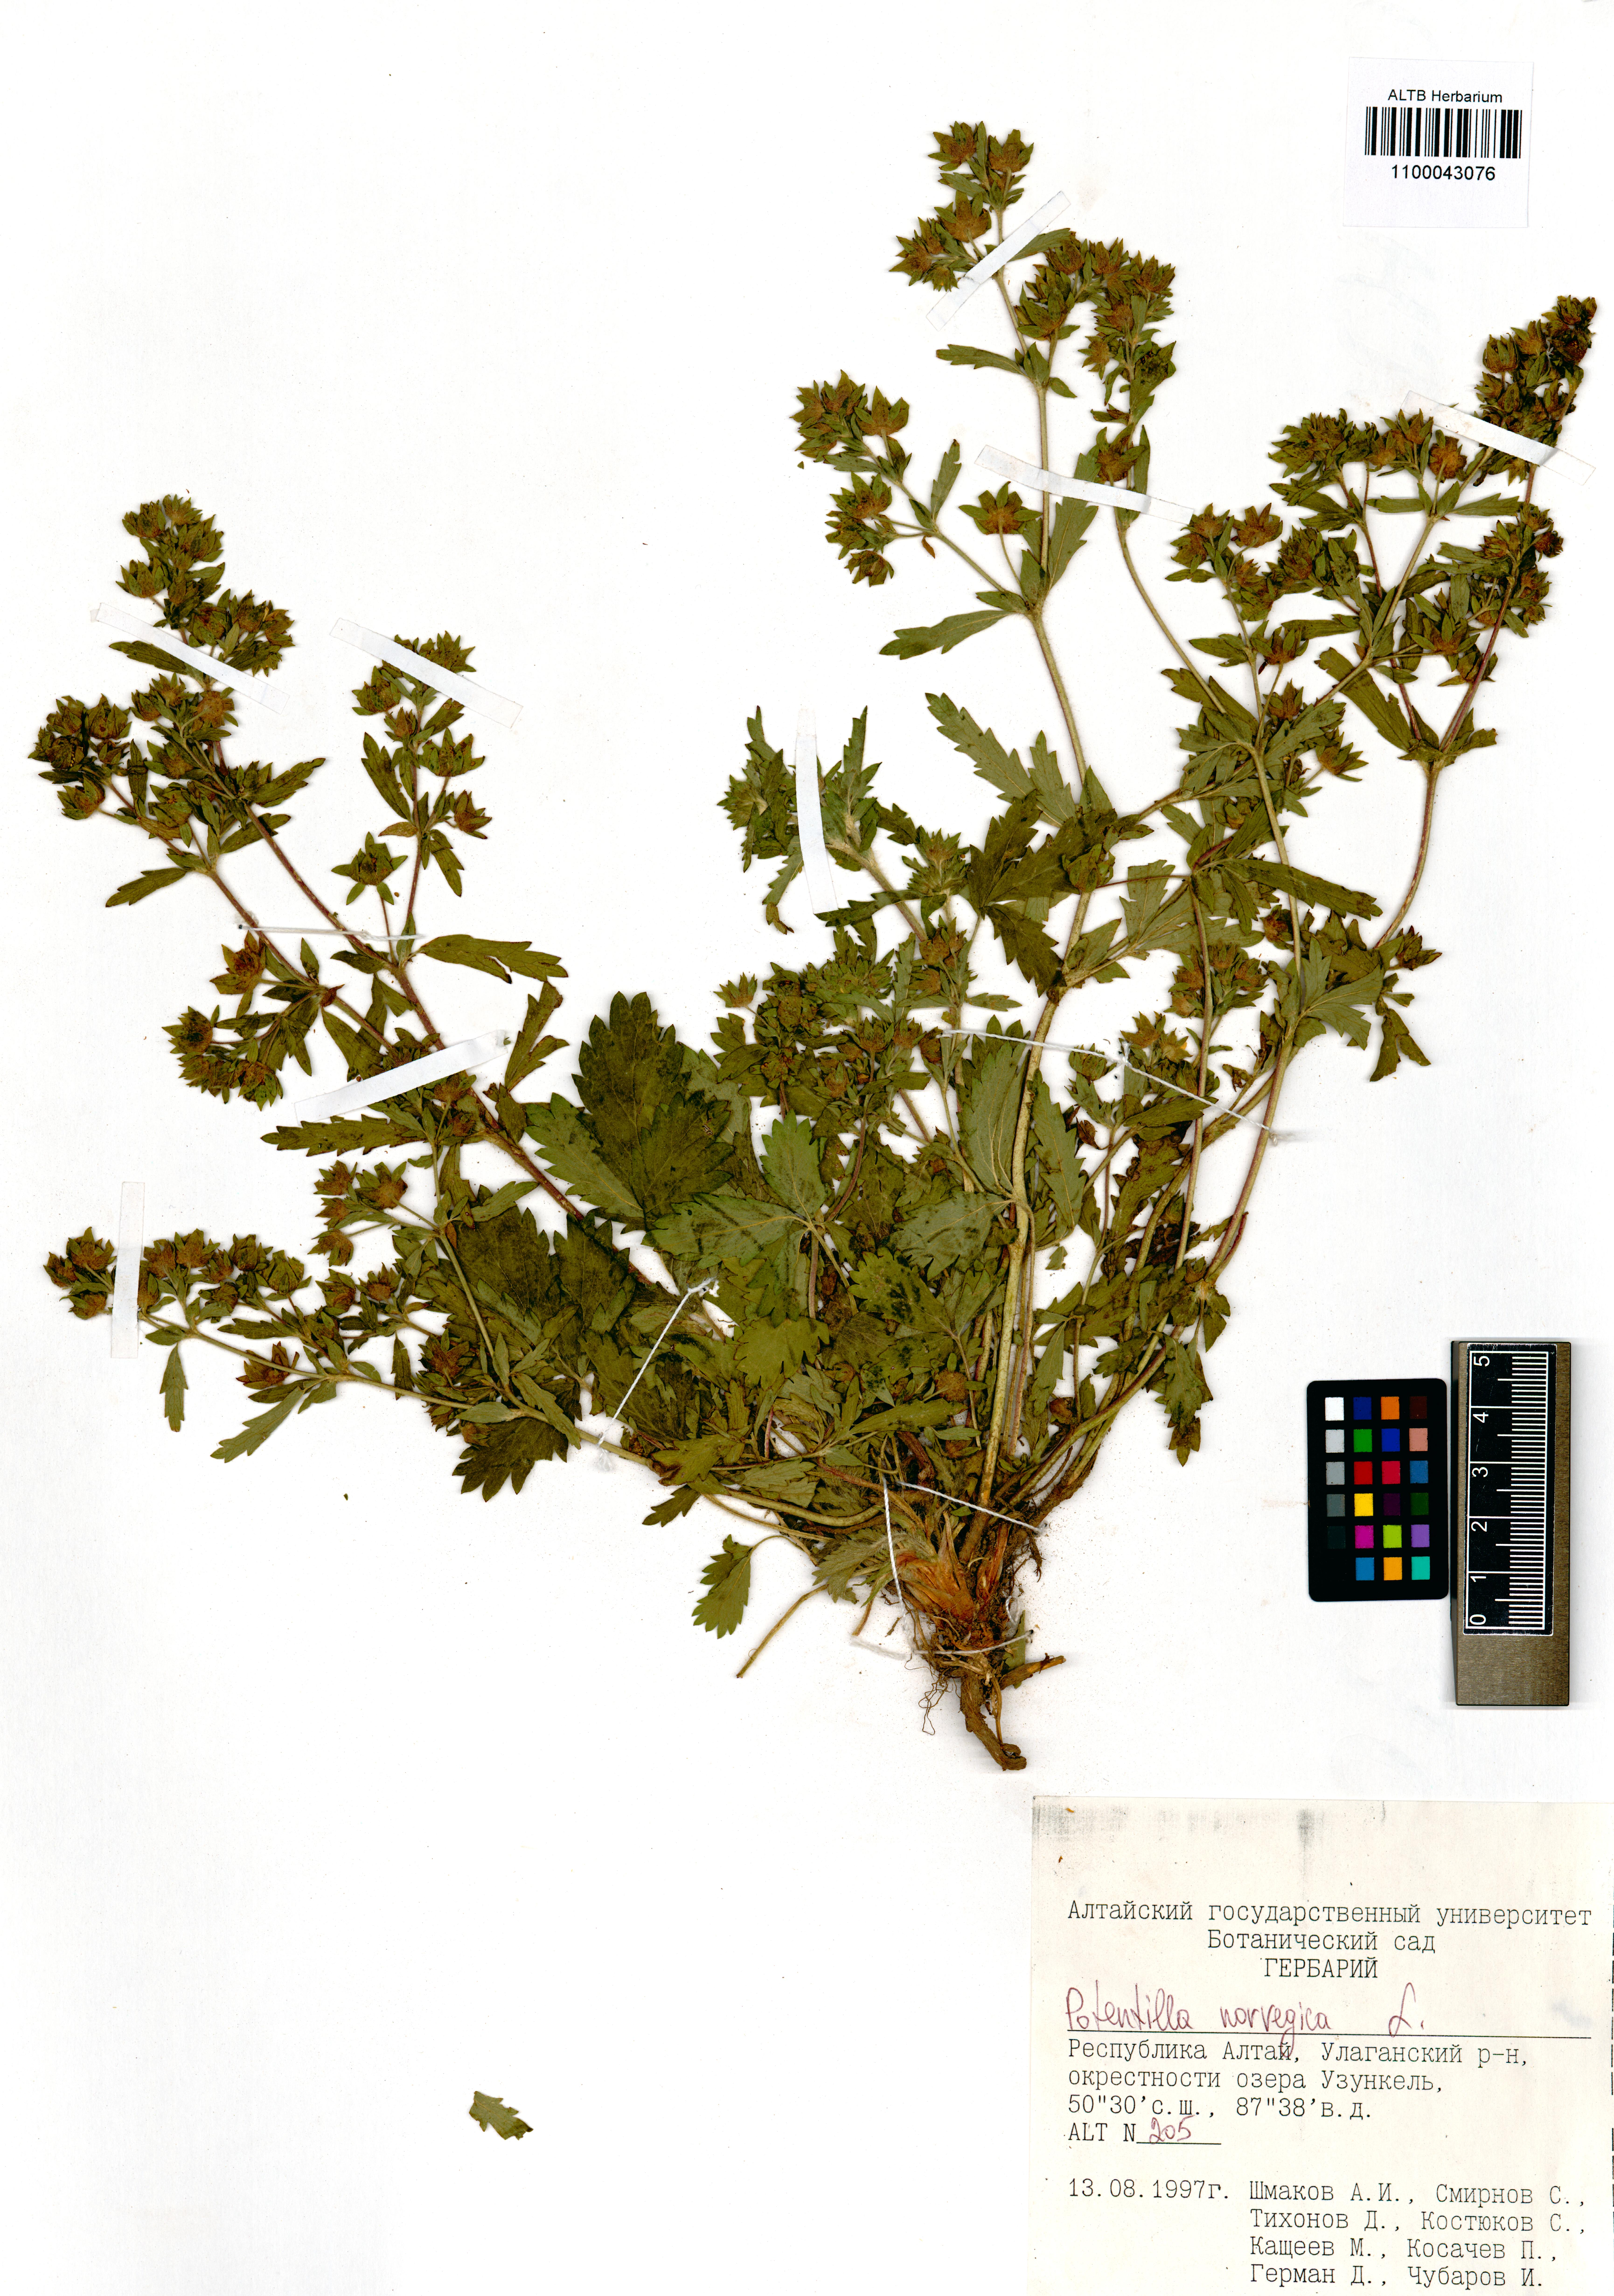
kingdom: Plantae
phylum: Tracheophyta
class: Magnoliopsida
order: Rosales
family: Rosaceae
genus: Potentilla
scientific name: Potentilla norvegica
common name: Ternate-leaved cinquefoil
